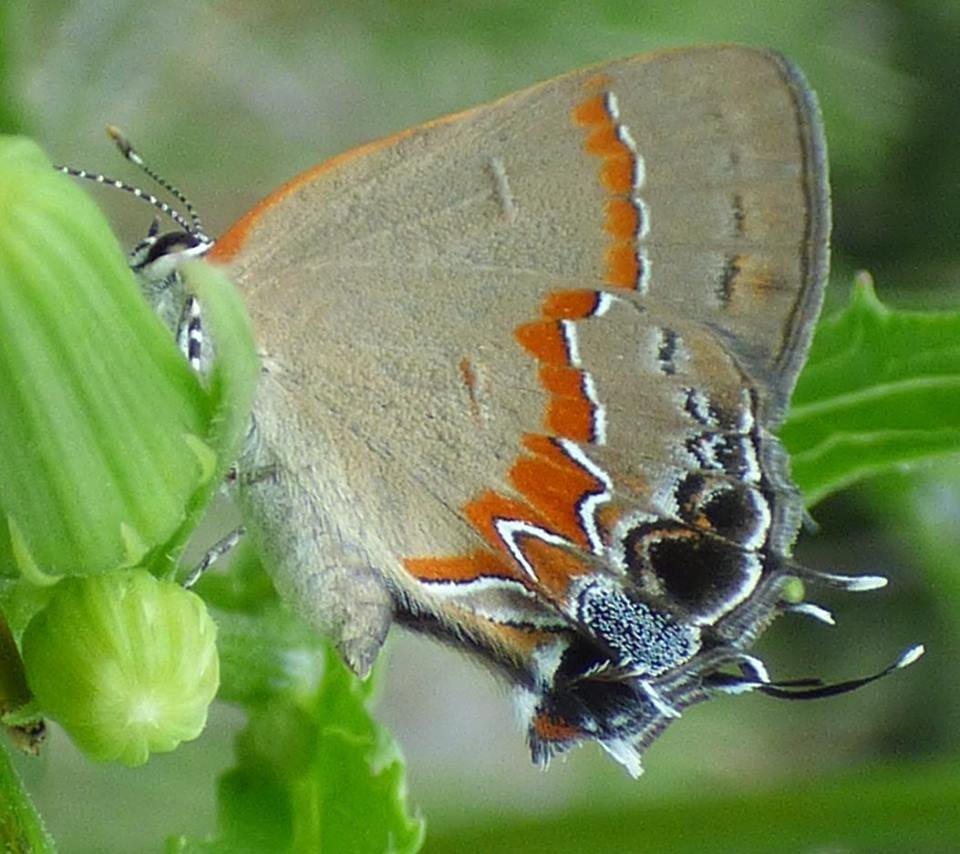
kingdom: Animalia
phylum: Arthropoda
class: Insecta
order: Lepidoptera
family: Lycaenidae
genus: Calycopis
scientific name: Calycopis cecrops
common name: Red-banded Hairstreak
